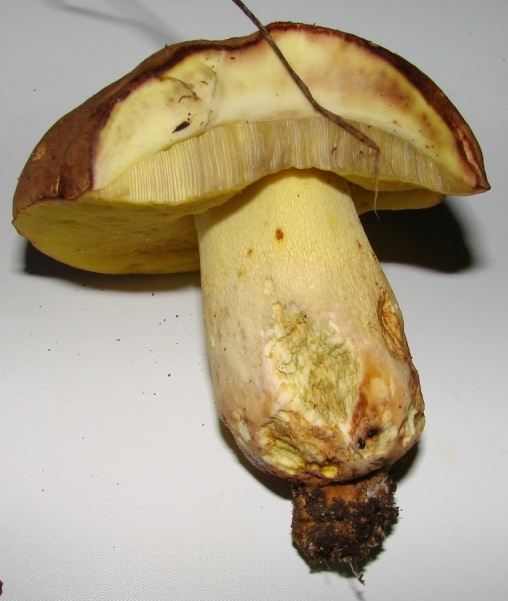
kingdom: Fungi
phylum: Basidiomycota
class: Agaricomycetes
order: Boletales
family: Boletaceae
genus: Butyriboletus
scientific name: Butyriboletus appendiculatus
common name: tenstokket rørhat
